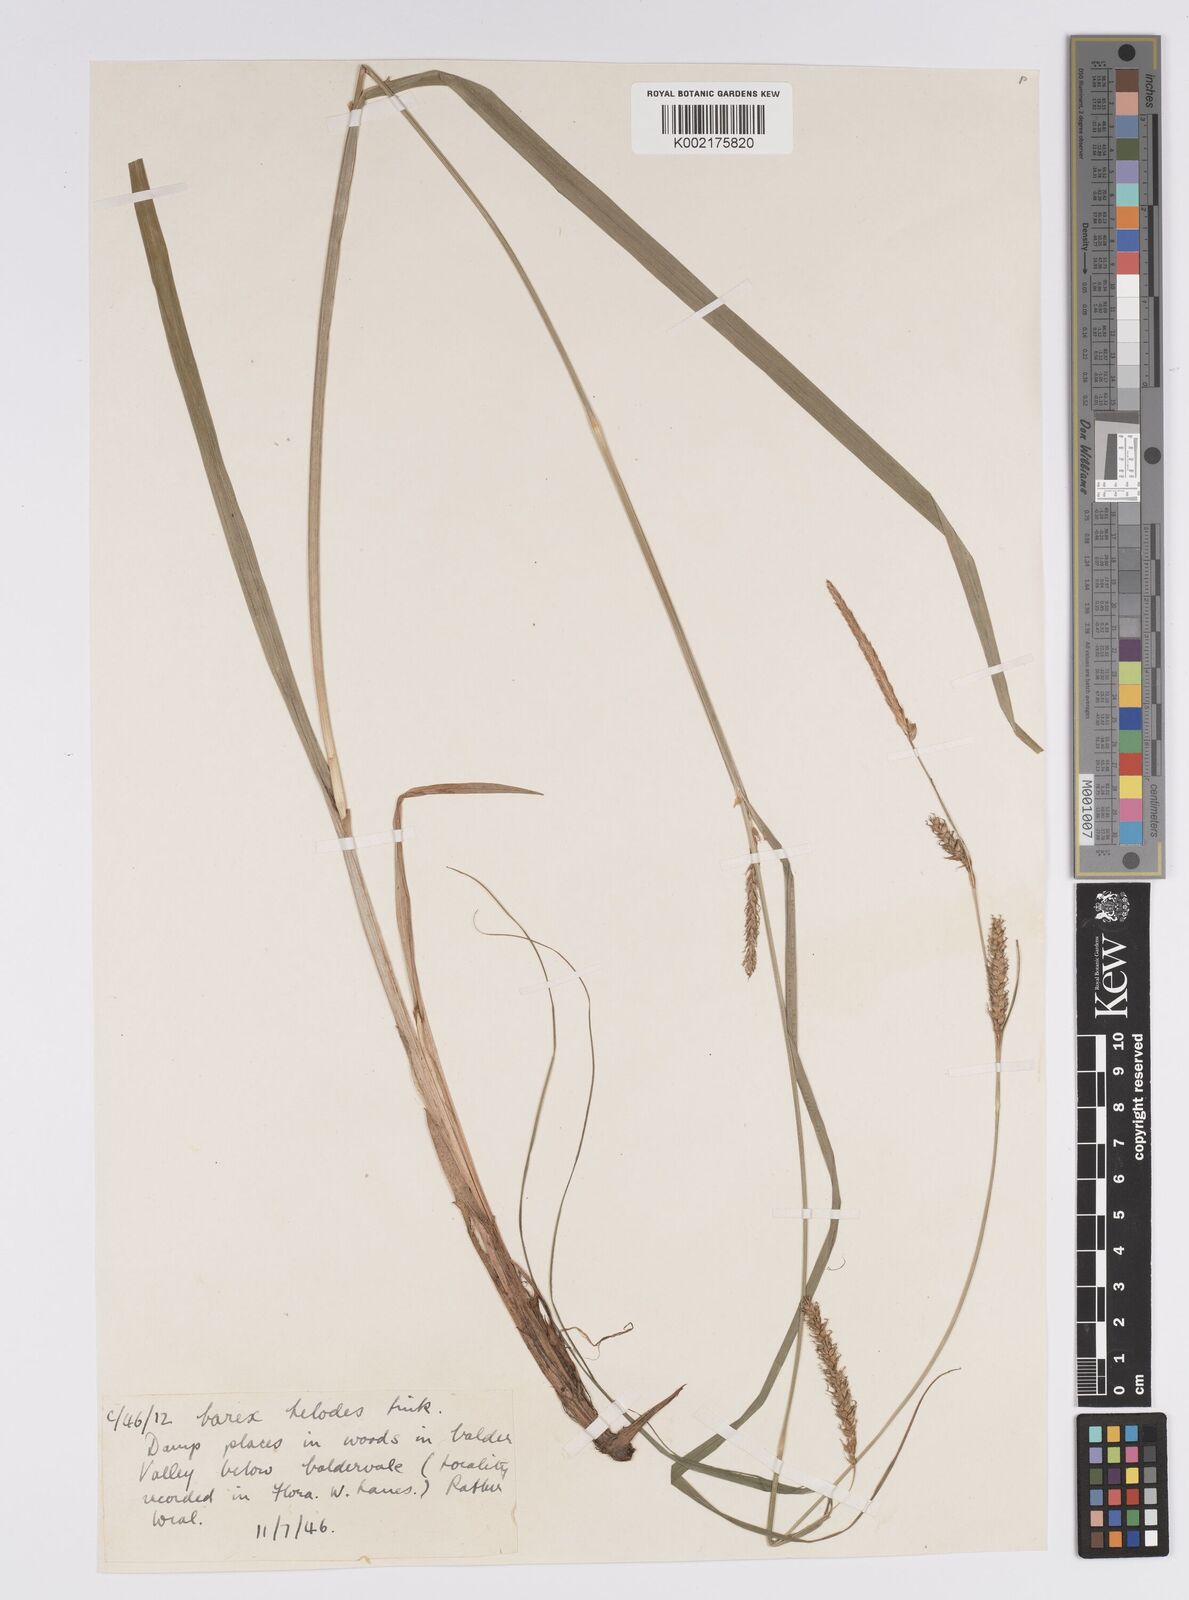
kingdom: Plantae
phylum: Tracheophyta
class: Liliopsida
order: Poales
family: Cyperaceae
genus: Carex
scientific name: Carex laevigata
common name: Smooth-stalked sedge
